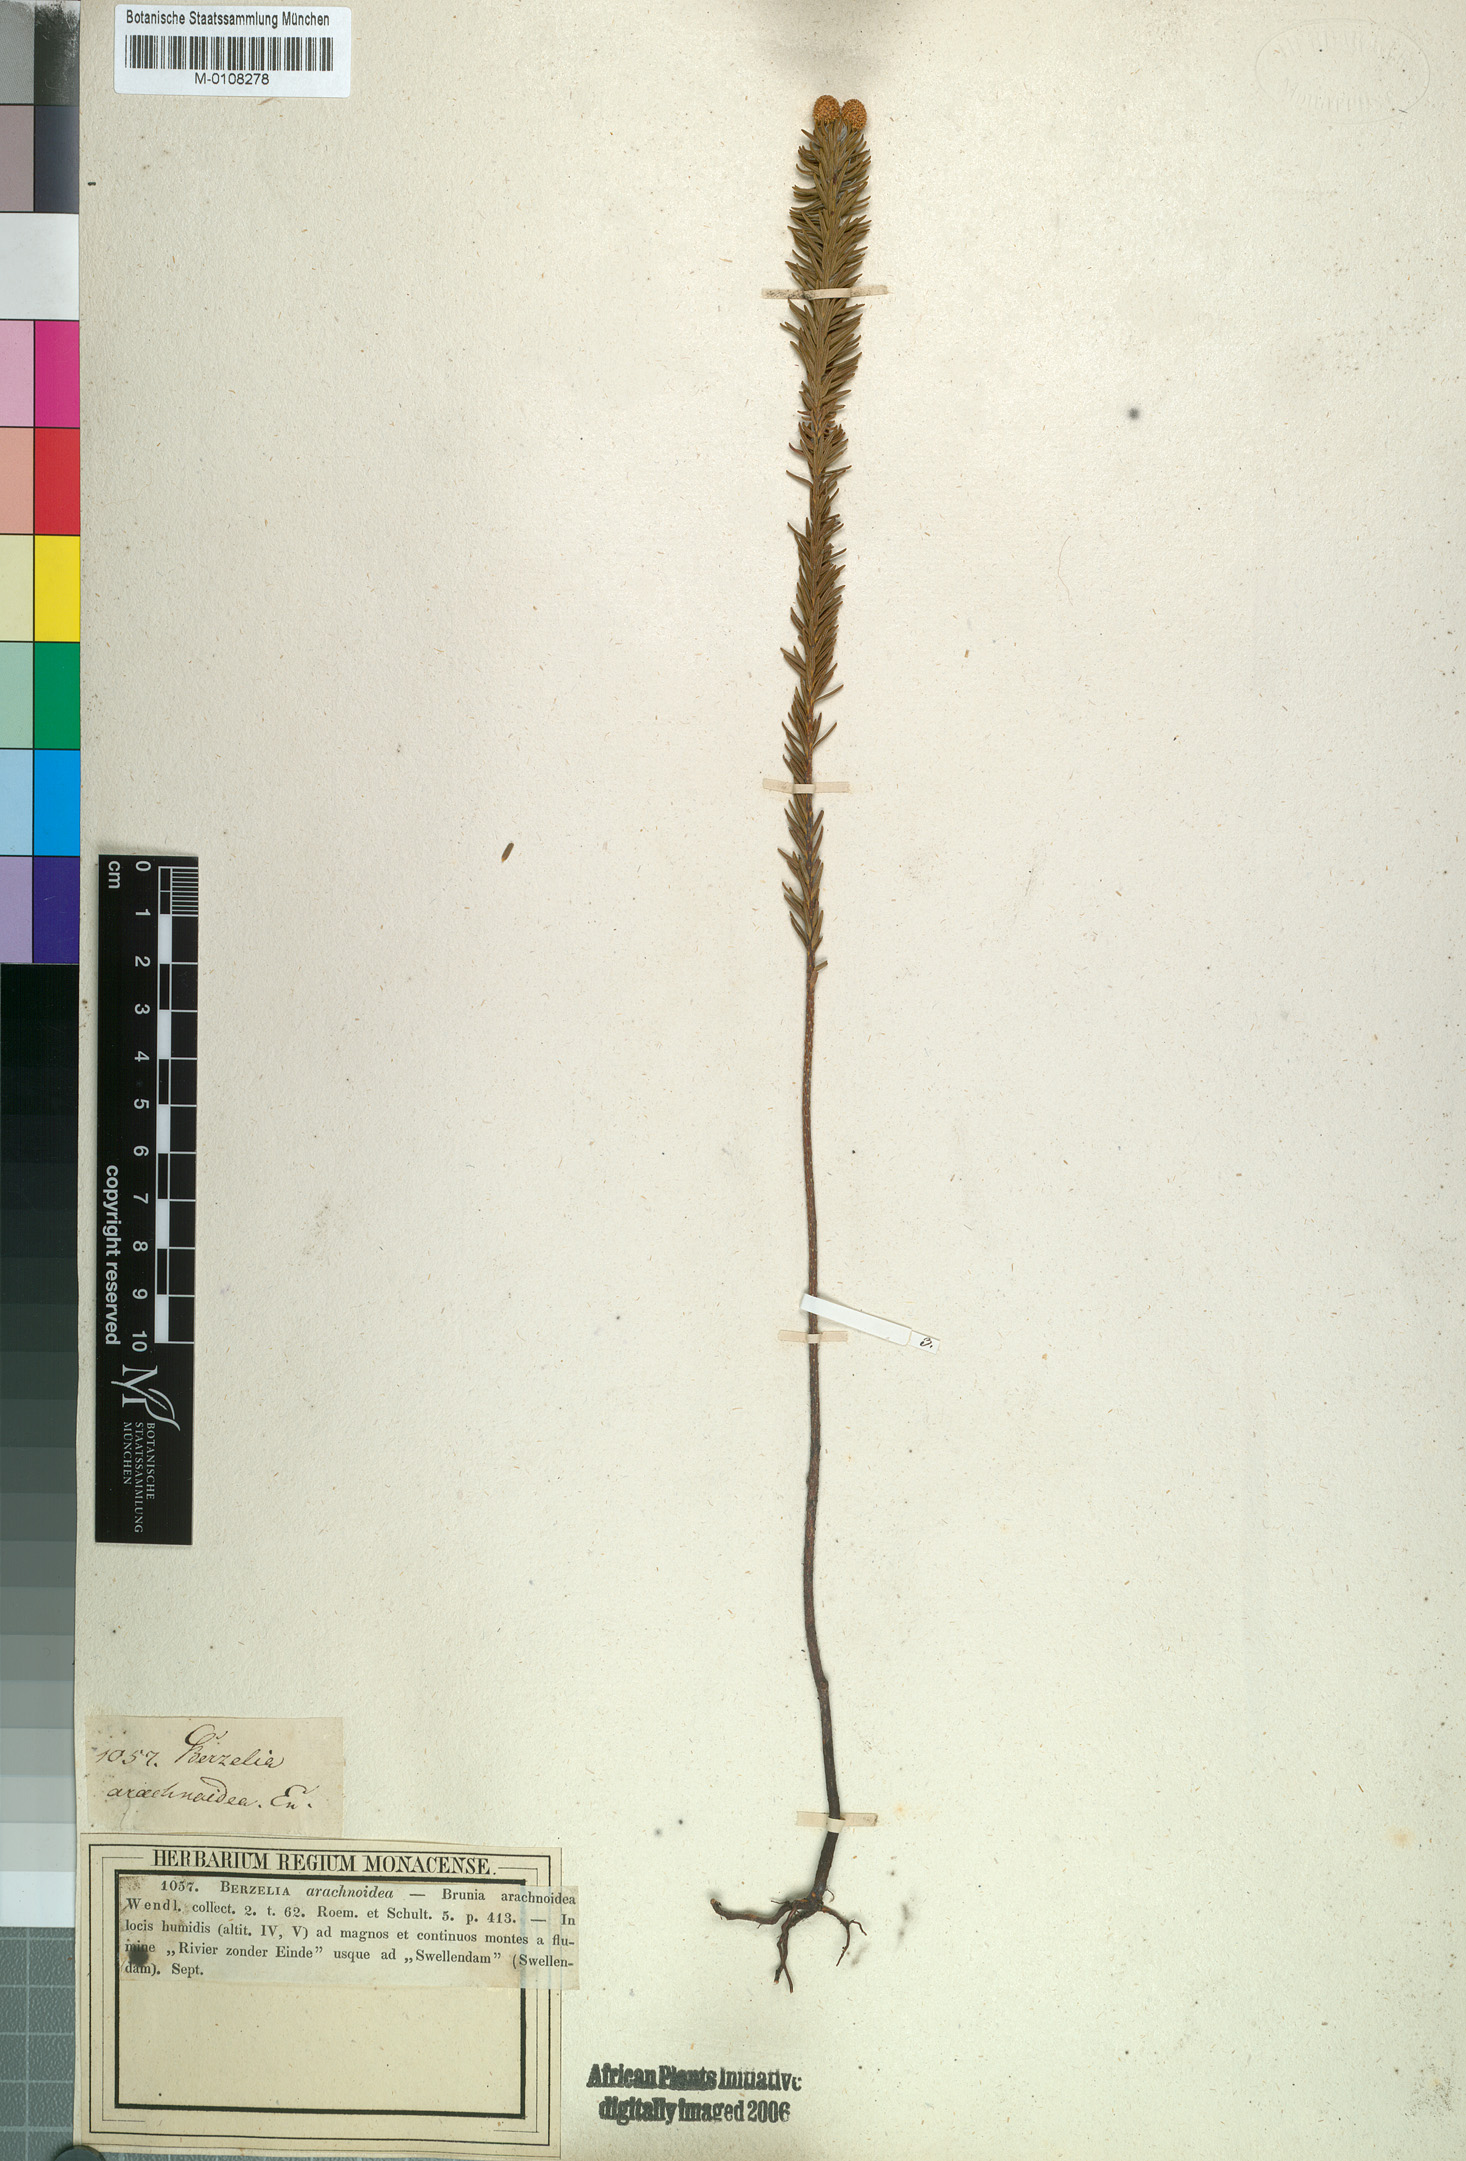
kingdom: Plantae
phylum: Tracheophyta
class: Magnoliopsida
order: Bruniales
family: Bruniaceae
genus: Berzelia
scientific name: Berzelia squarrosa
